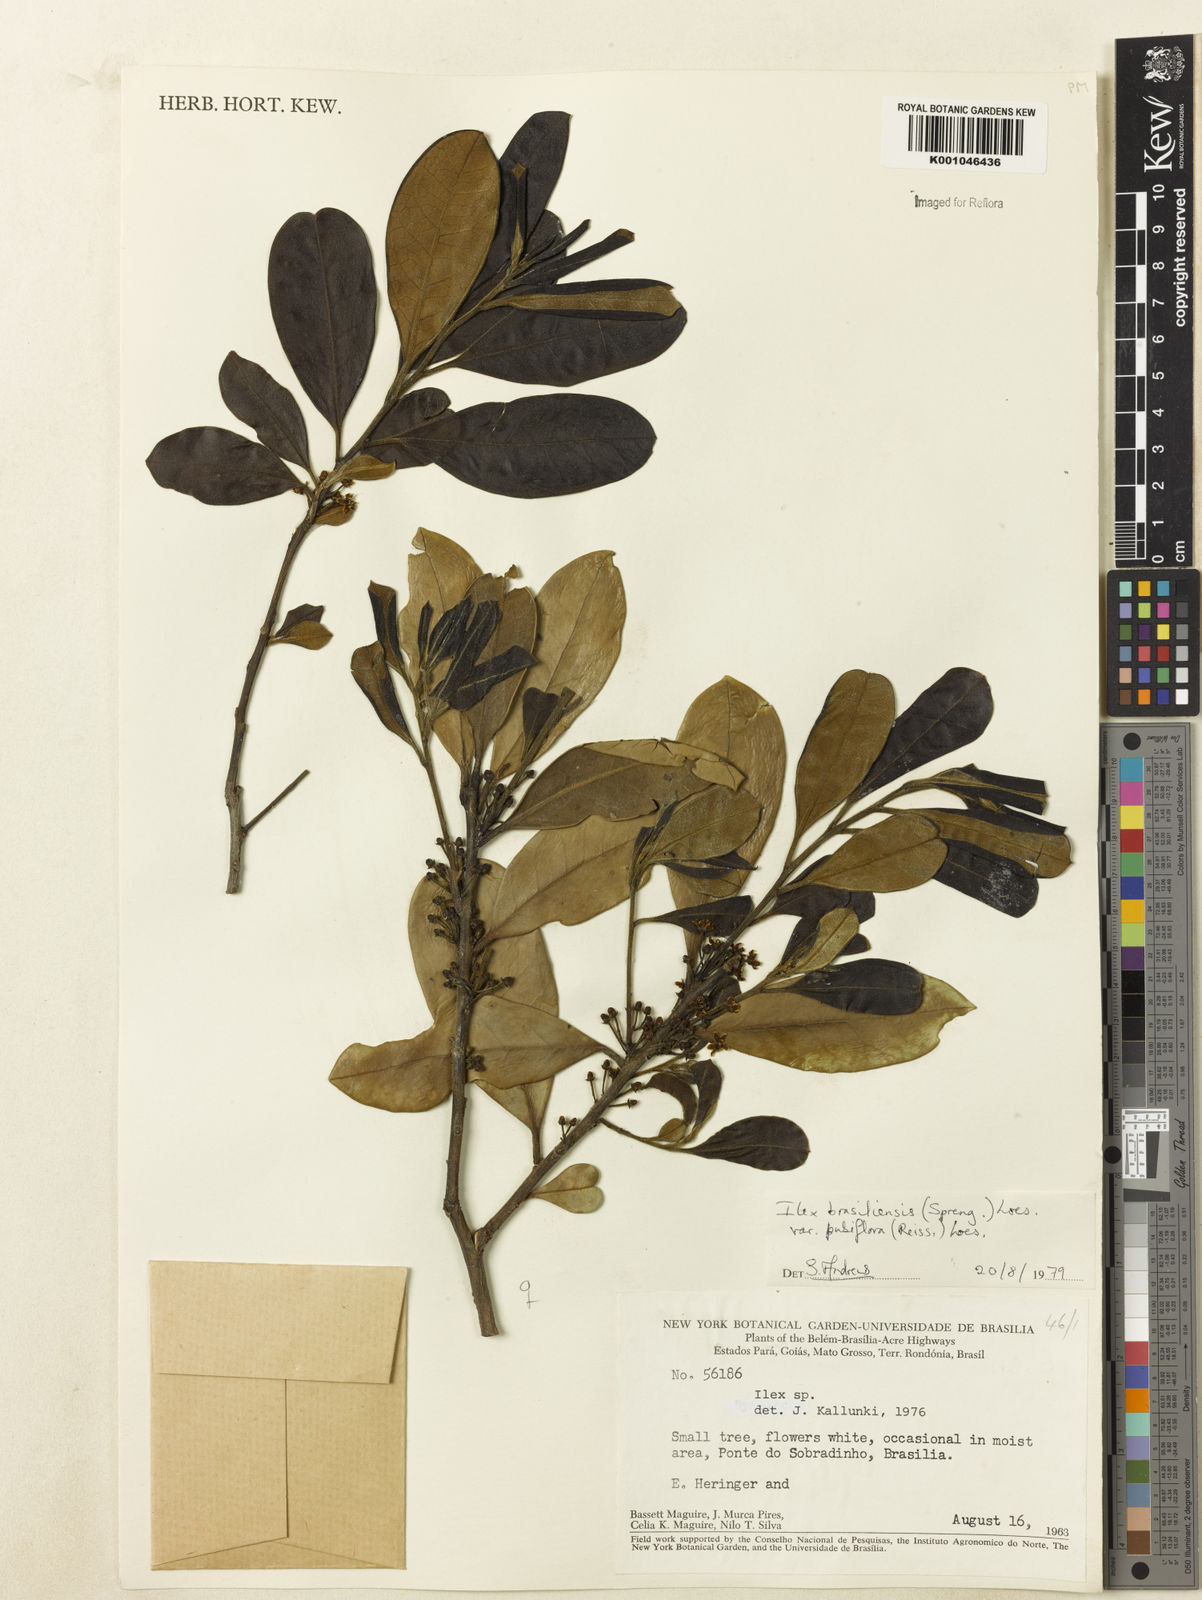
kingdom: Plantae
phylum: Tracheophyta
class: Magnoliopsida
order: Aquifoliales
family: Aquifoliaceae
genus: Ilex
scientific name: Ilex brasiliensis
